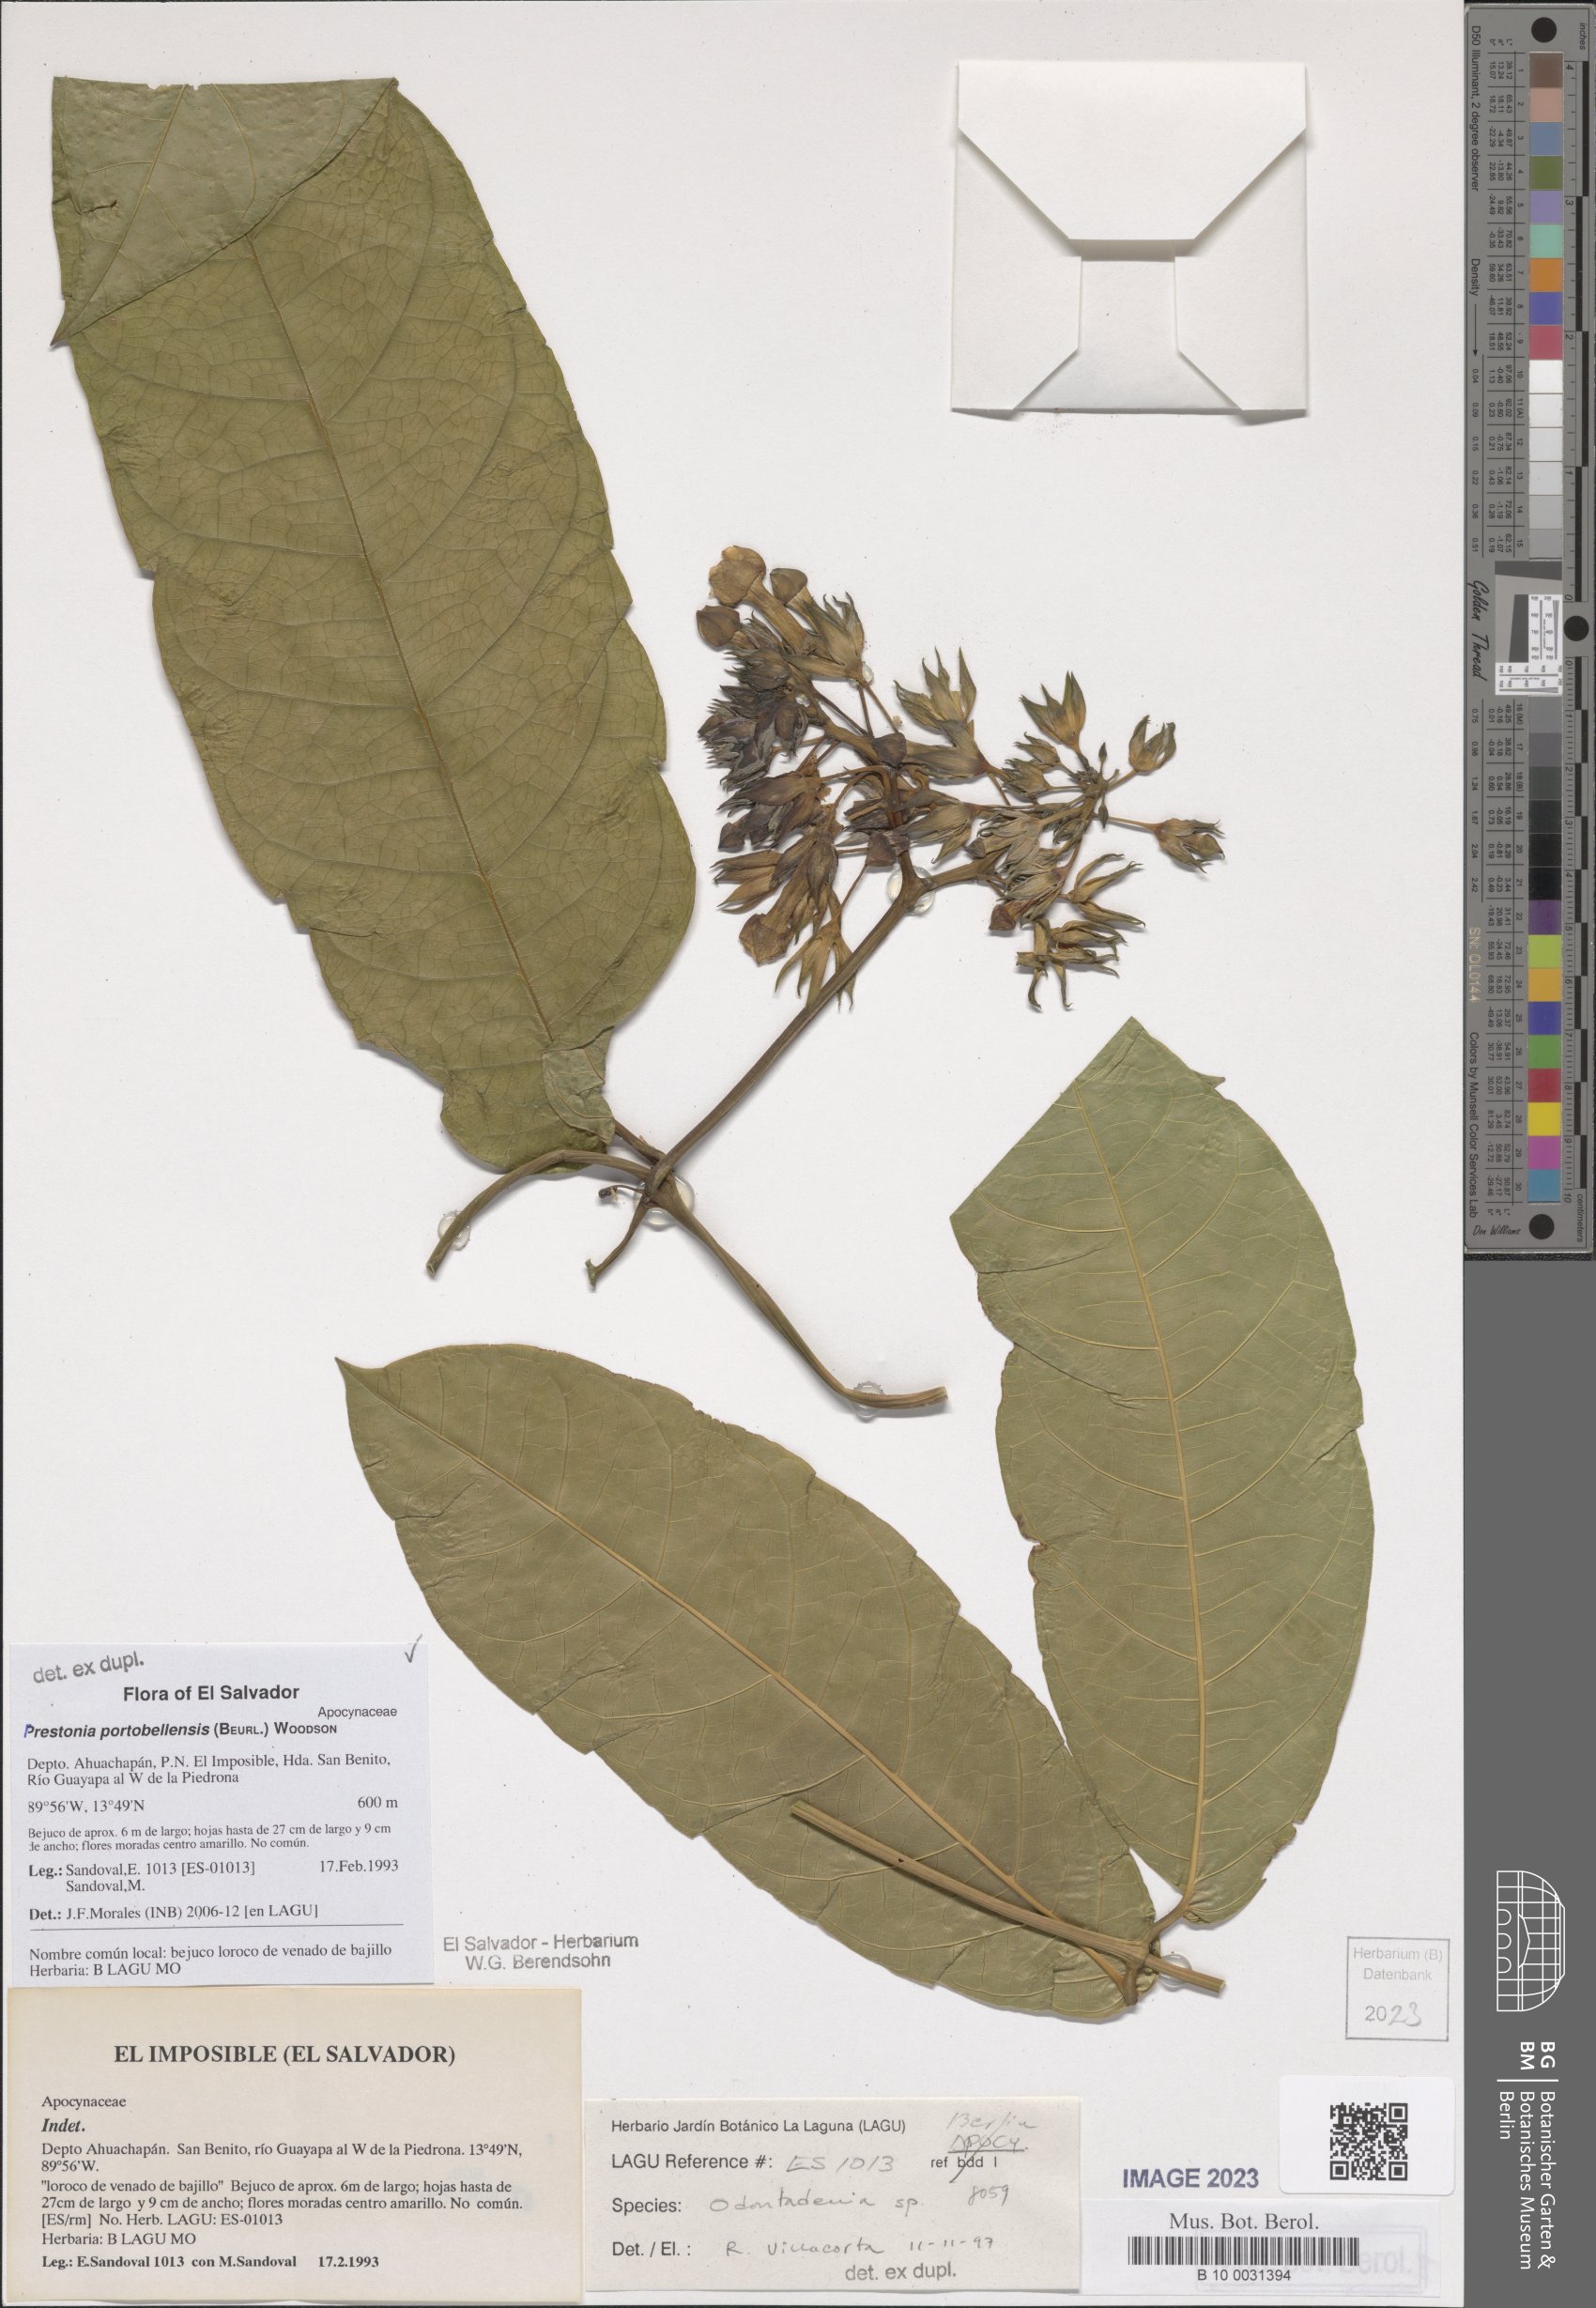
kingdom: Plantae
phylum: Tracheophyta
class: Magnoliopsida
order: Gentianales
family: Apocynaceae
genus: Prestonia
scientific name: Prestonia portobellensis
